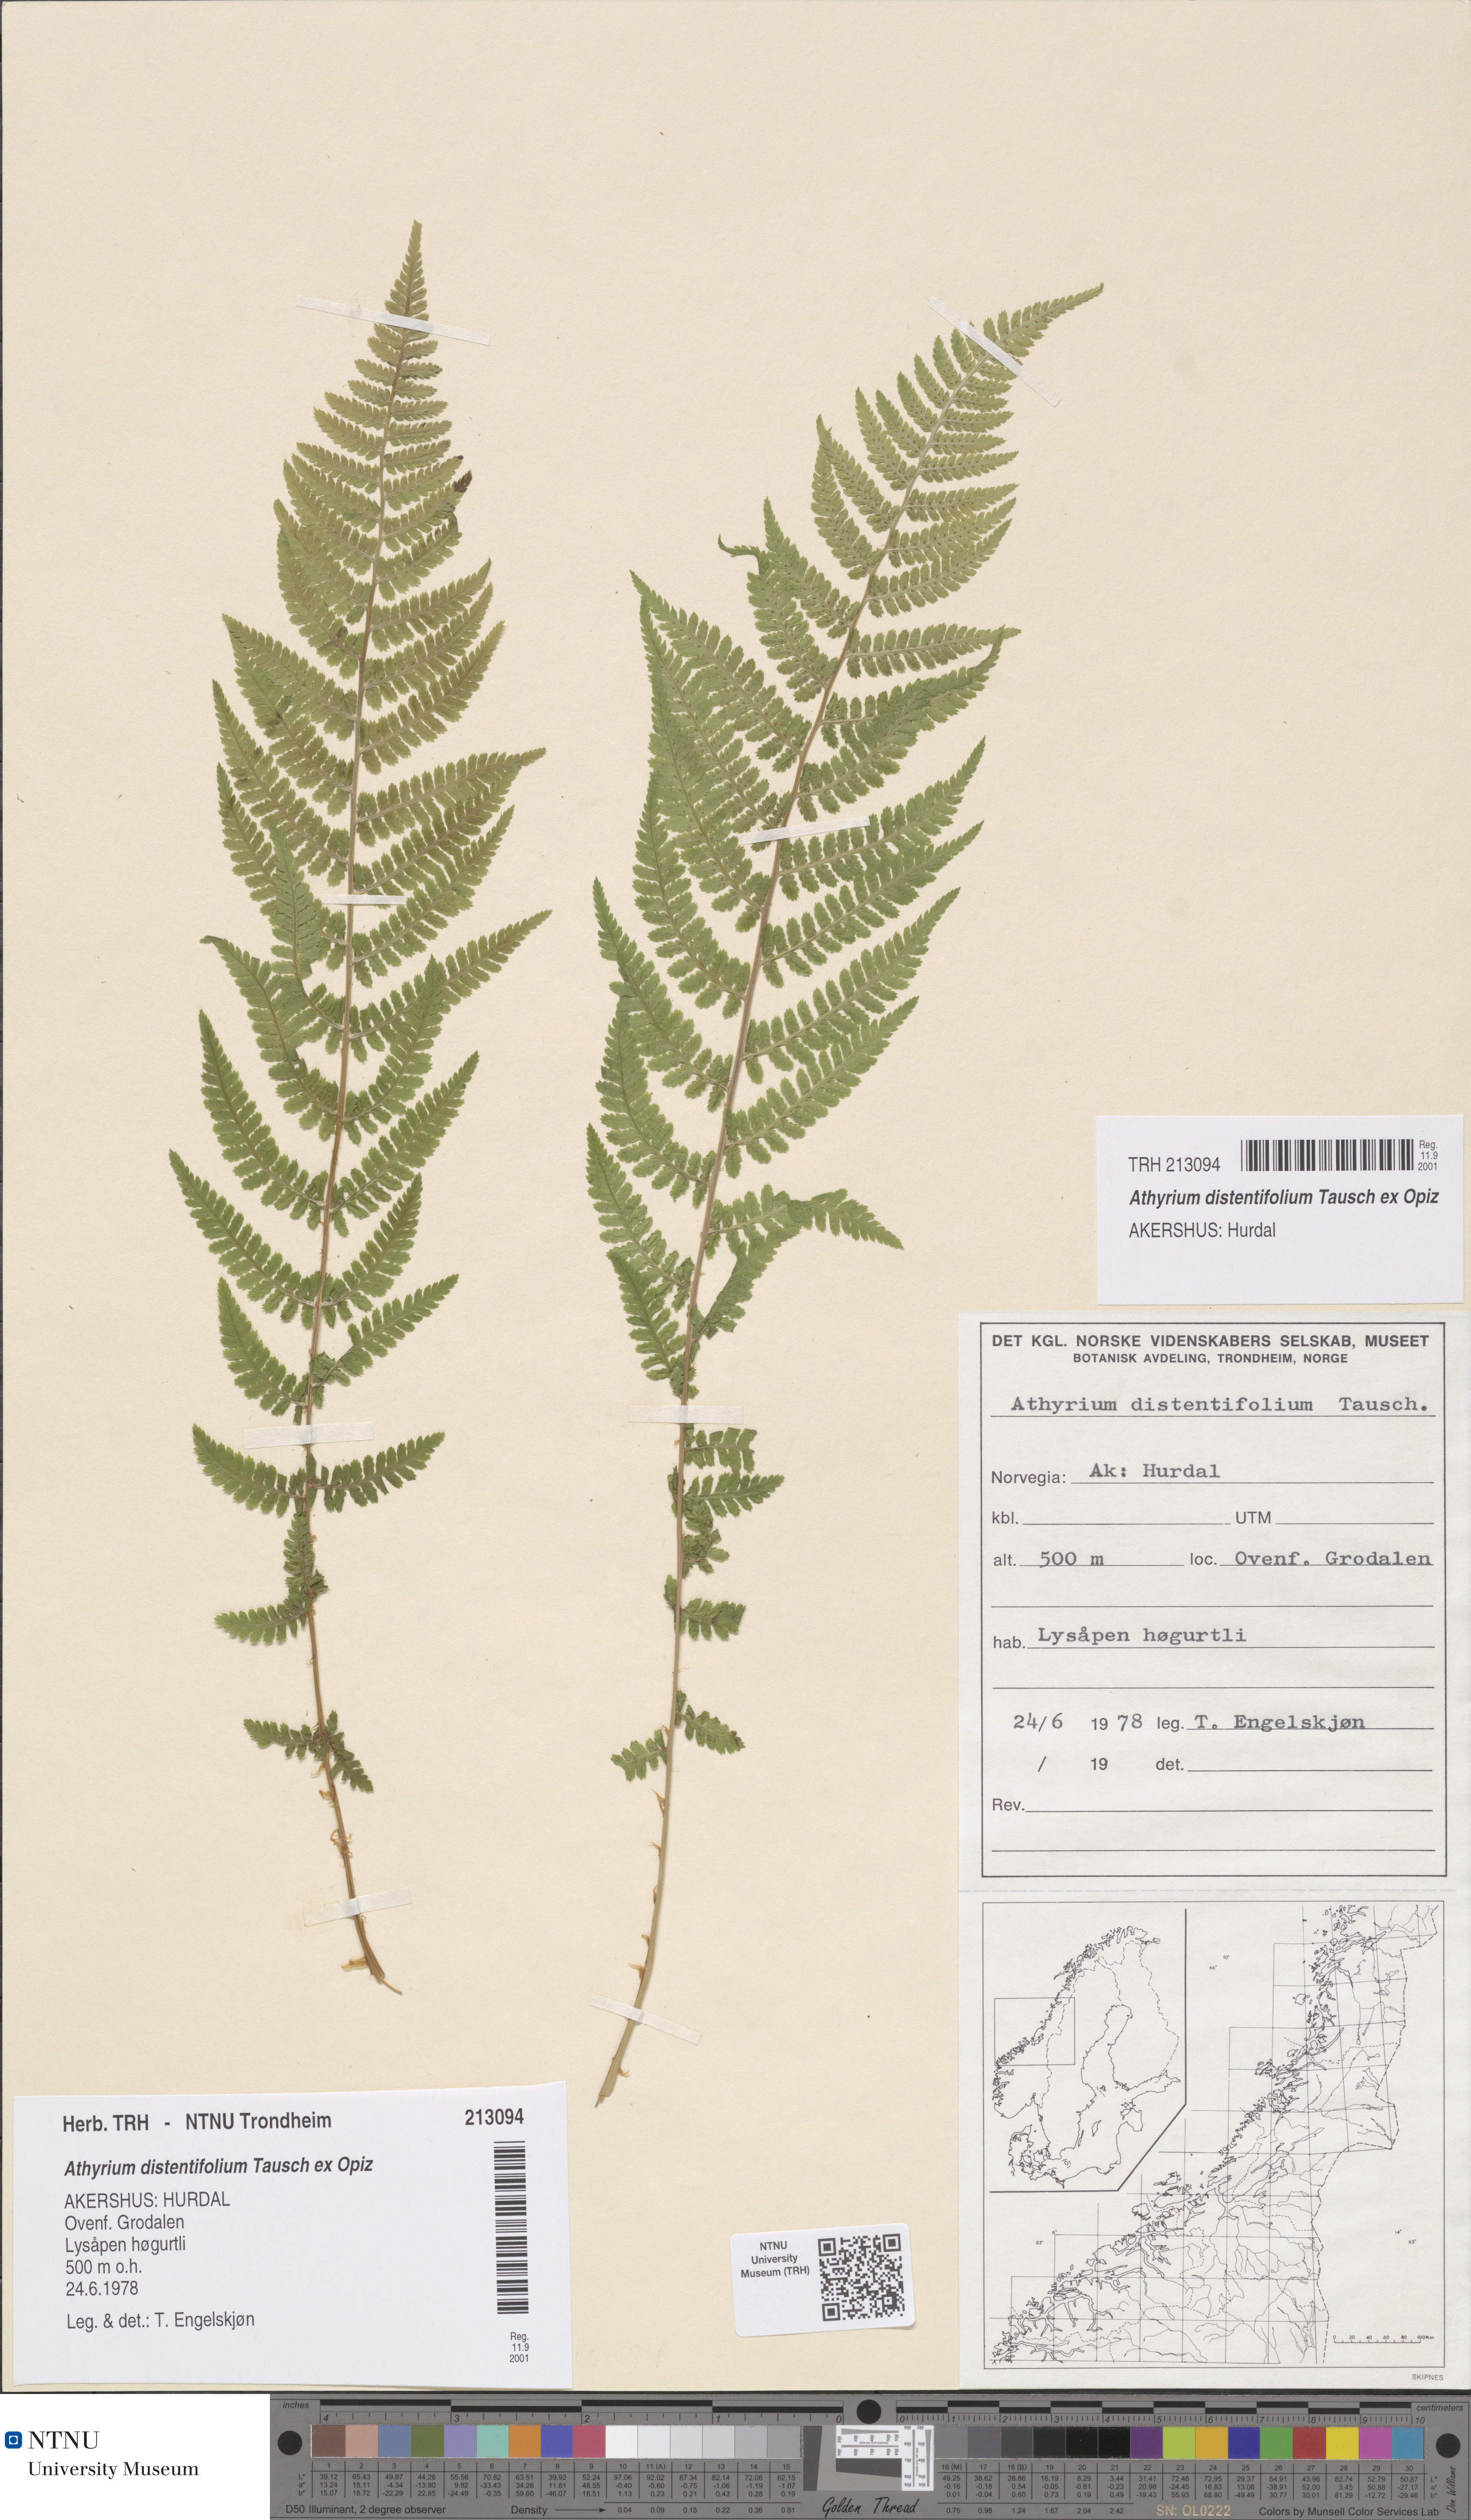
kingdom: Plantae
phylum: Tracheophyta
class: Polypodiopsida
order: Polypodiales
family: Athyriaceae
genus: Pseudathyrium
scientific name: Pseudathyrium alpestre
